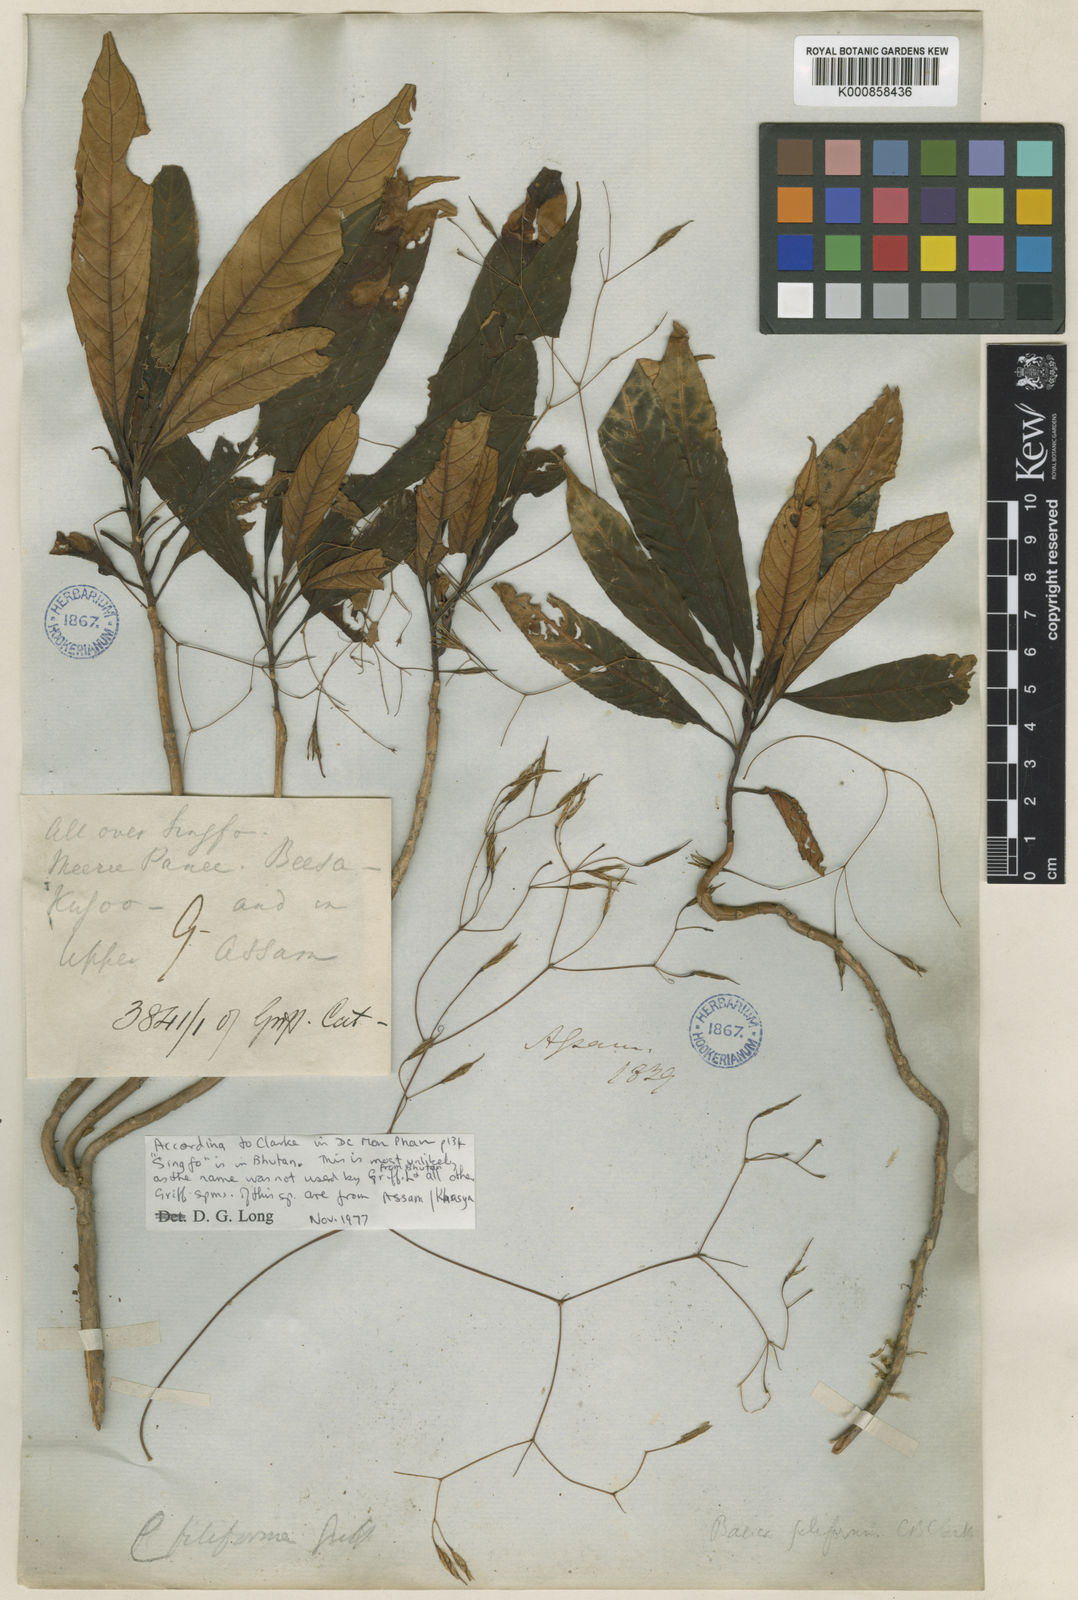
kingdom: Plantae
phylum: Tracheophyta
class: Magnoliopsida
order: Lamiales
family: Gesneriaceae
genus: Boeica
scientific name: Boeica filiformis
